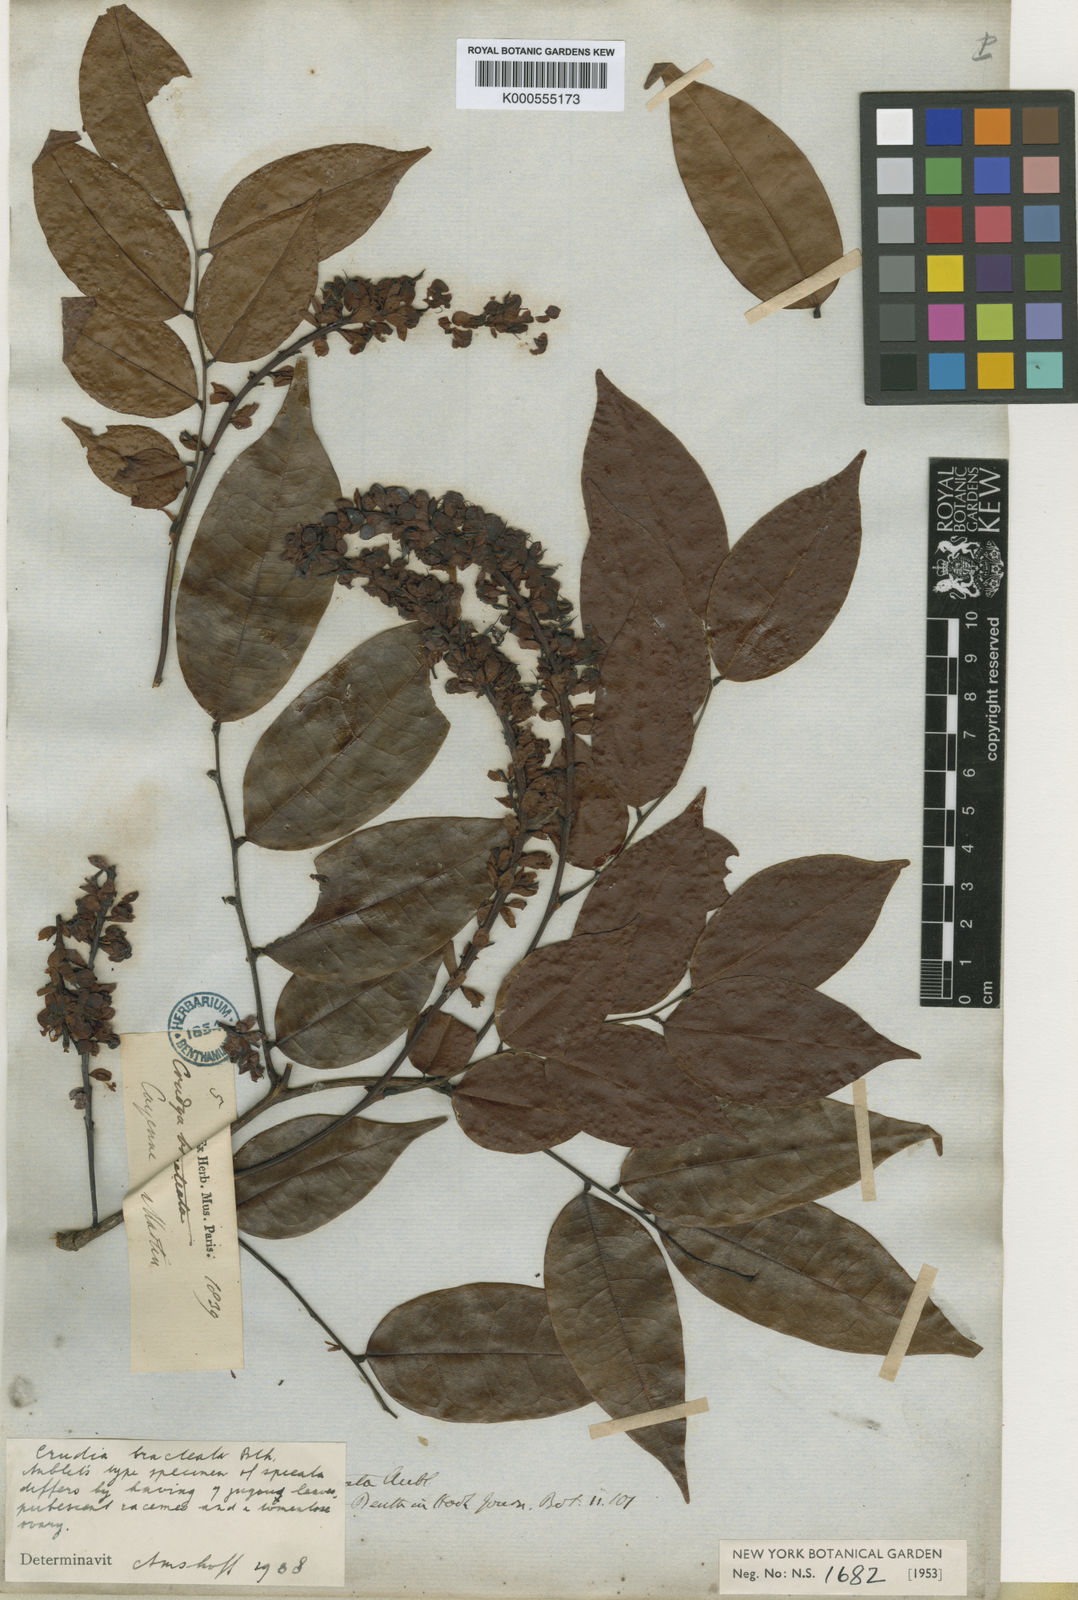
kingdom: Plantae
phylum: Tracheophyta
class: Magnoliopsida
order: Fabales
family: Fabaceae
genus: Crudia
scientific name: Crudia bracteata
